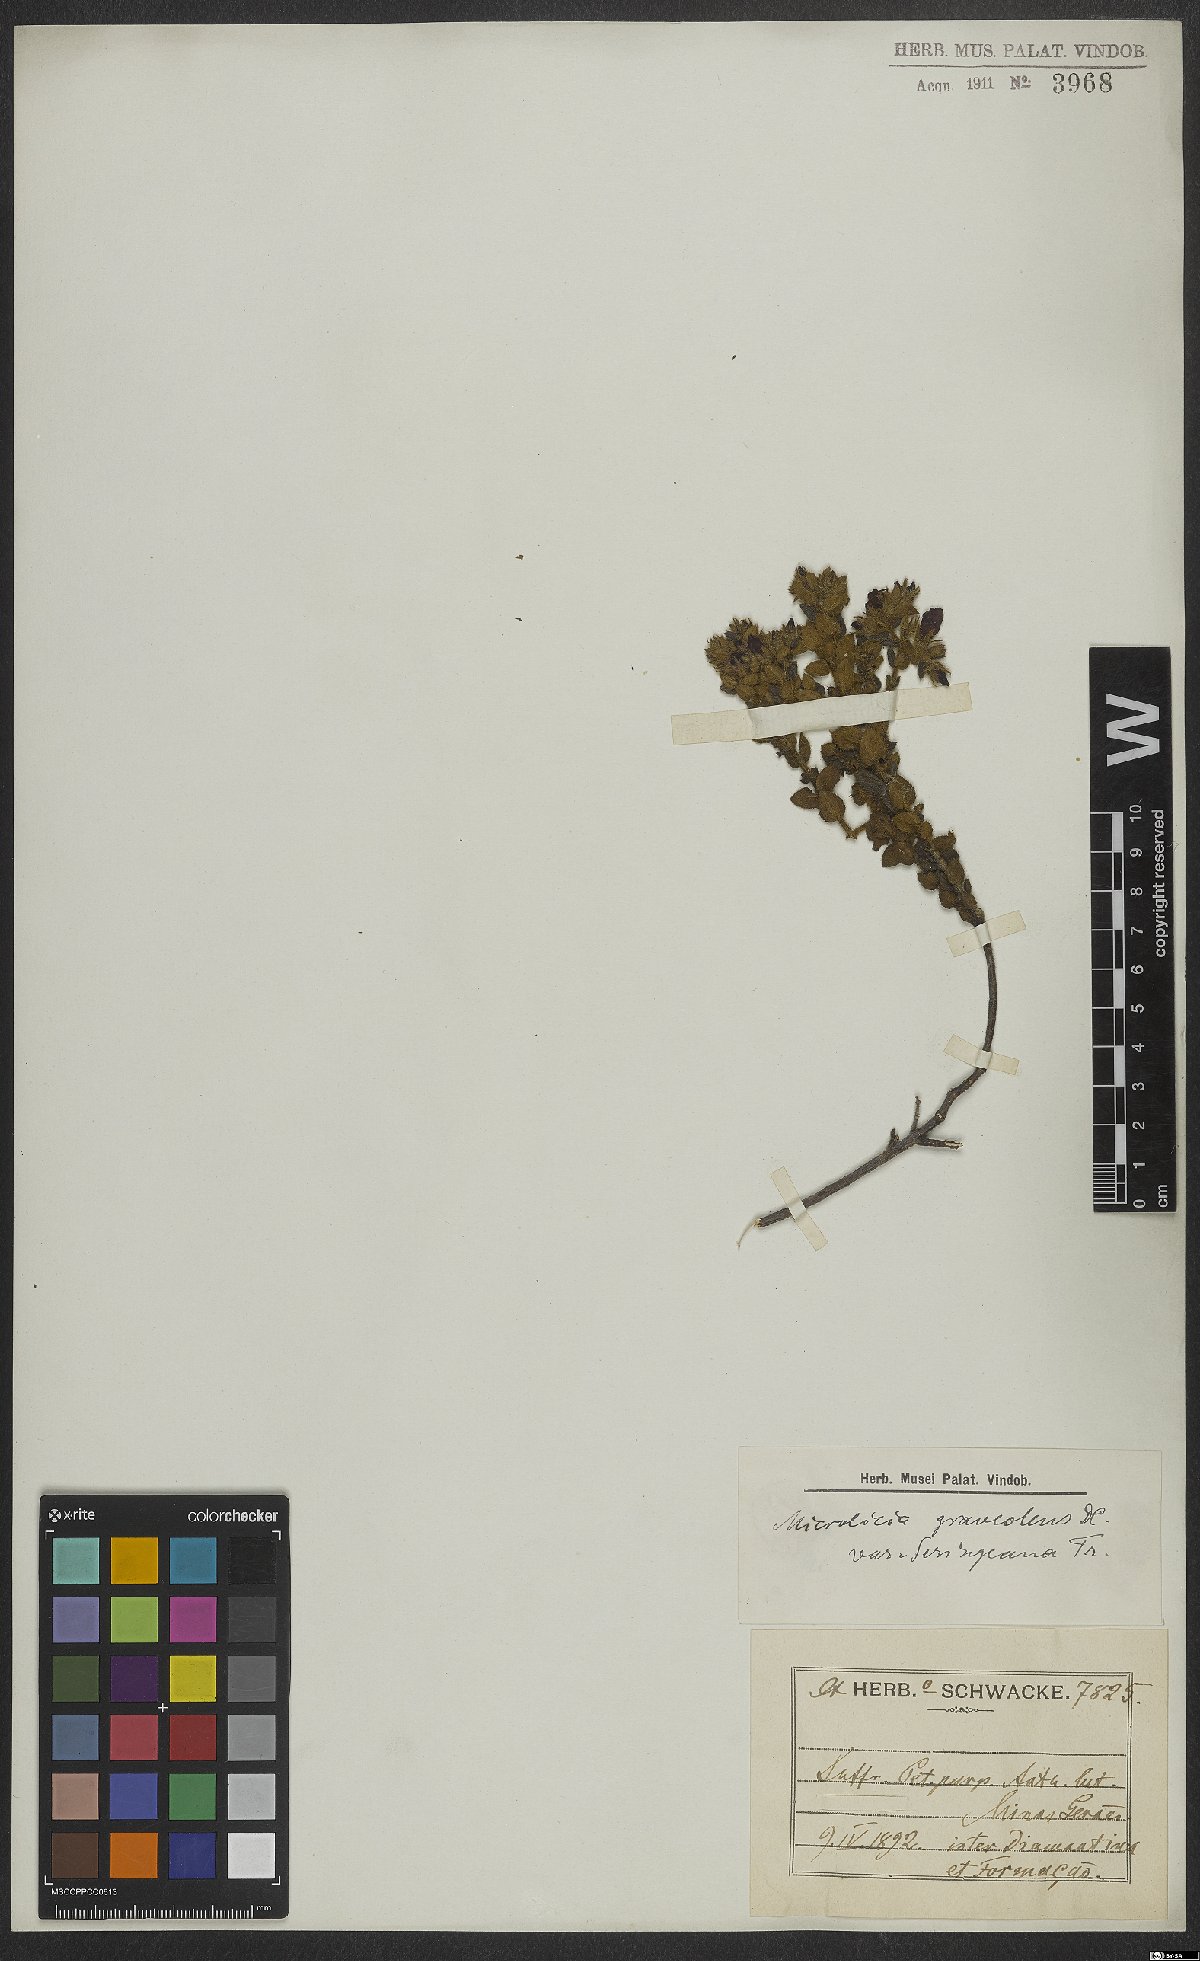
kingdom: Plantae
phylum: Tracheophyta
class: Magnoliopsida
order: Myrtales
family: Melastomataceae
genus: Microlicia
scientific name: Microlicia graveolens
